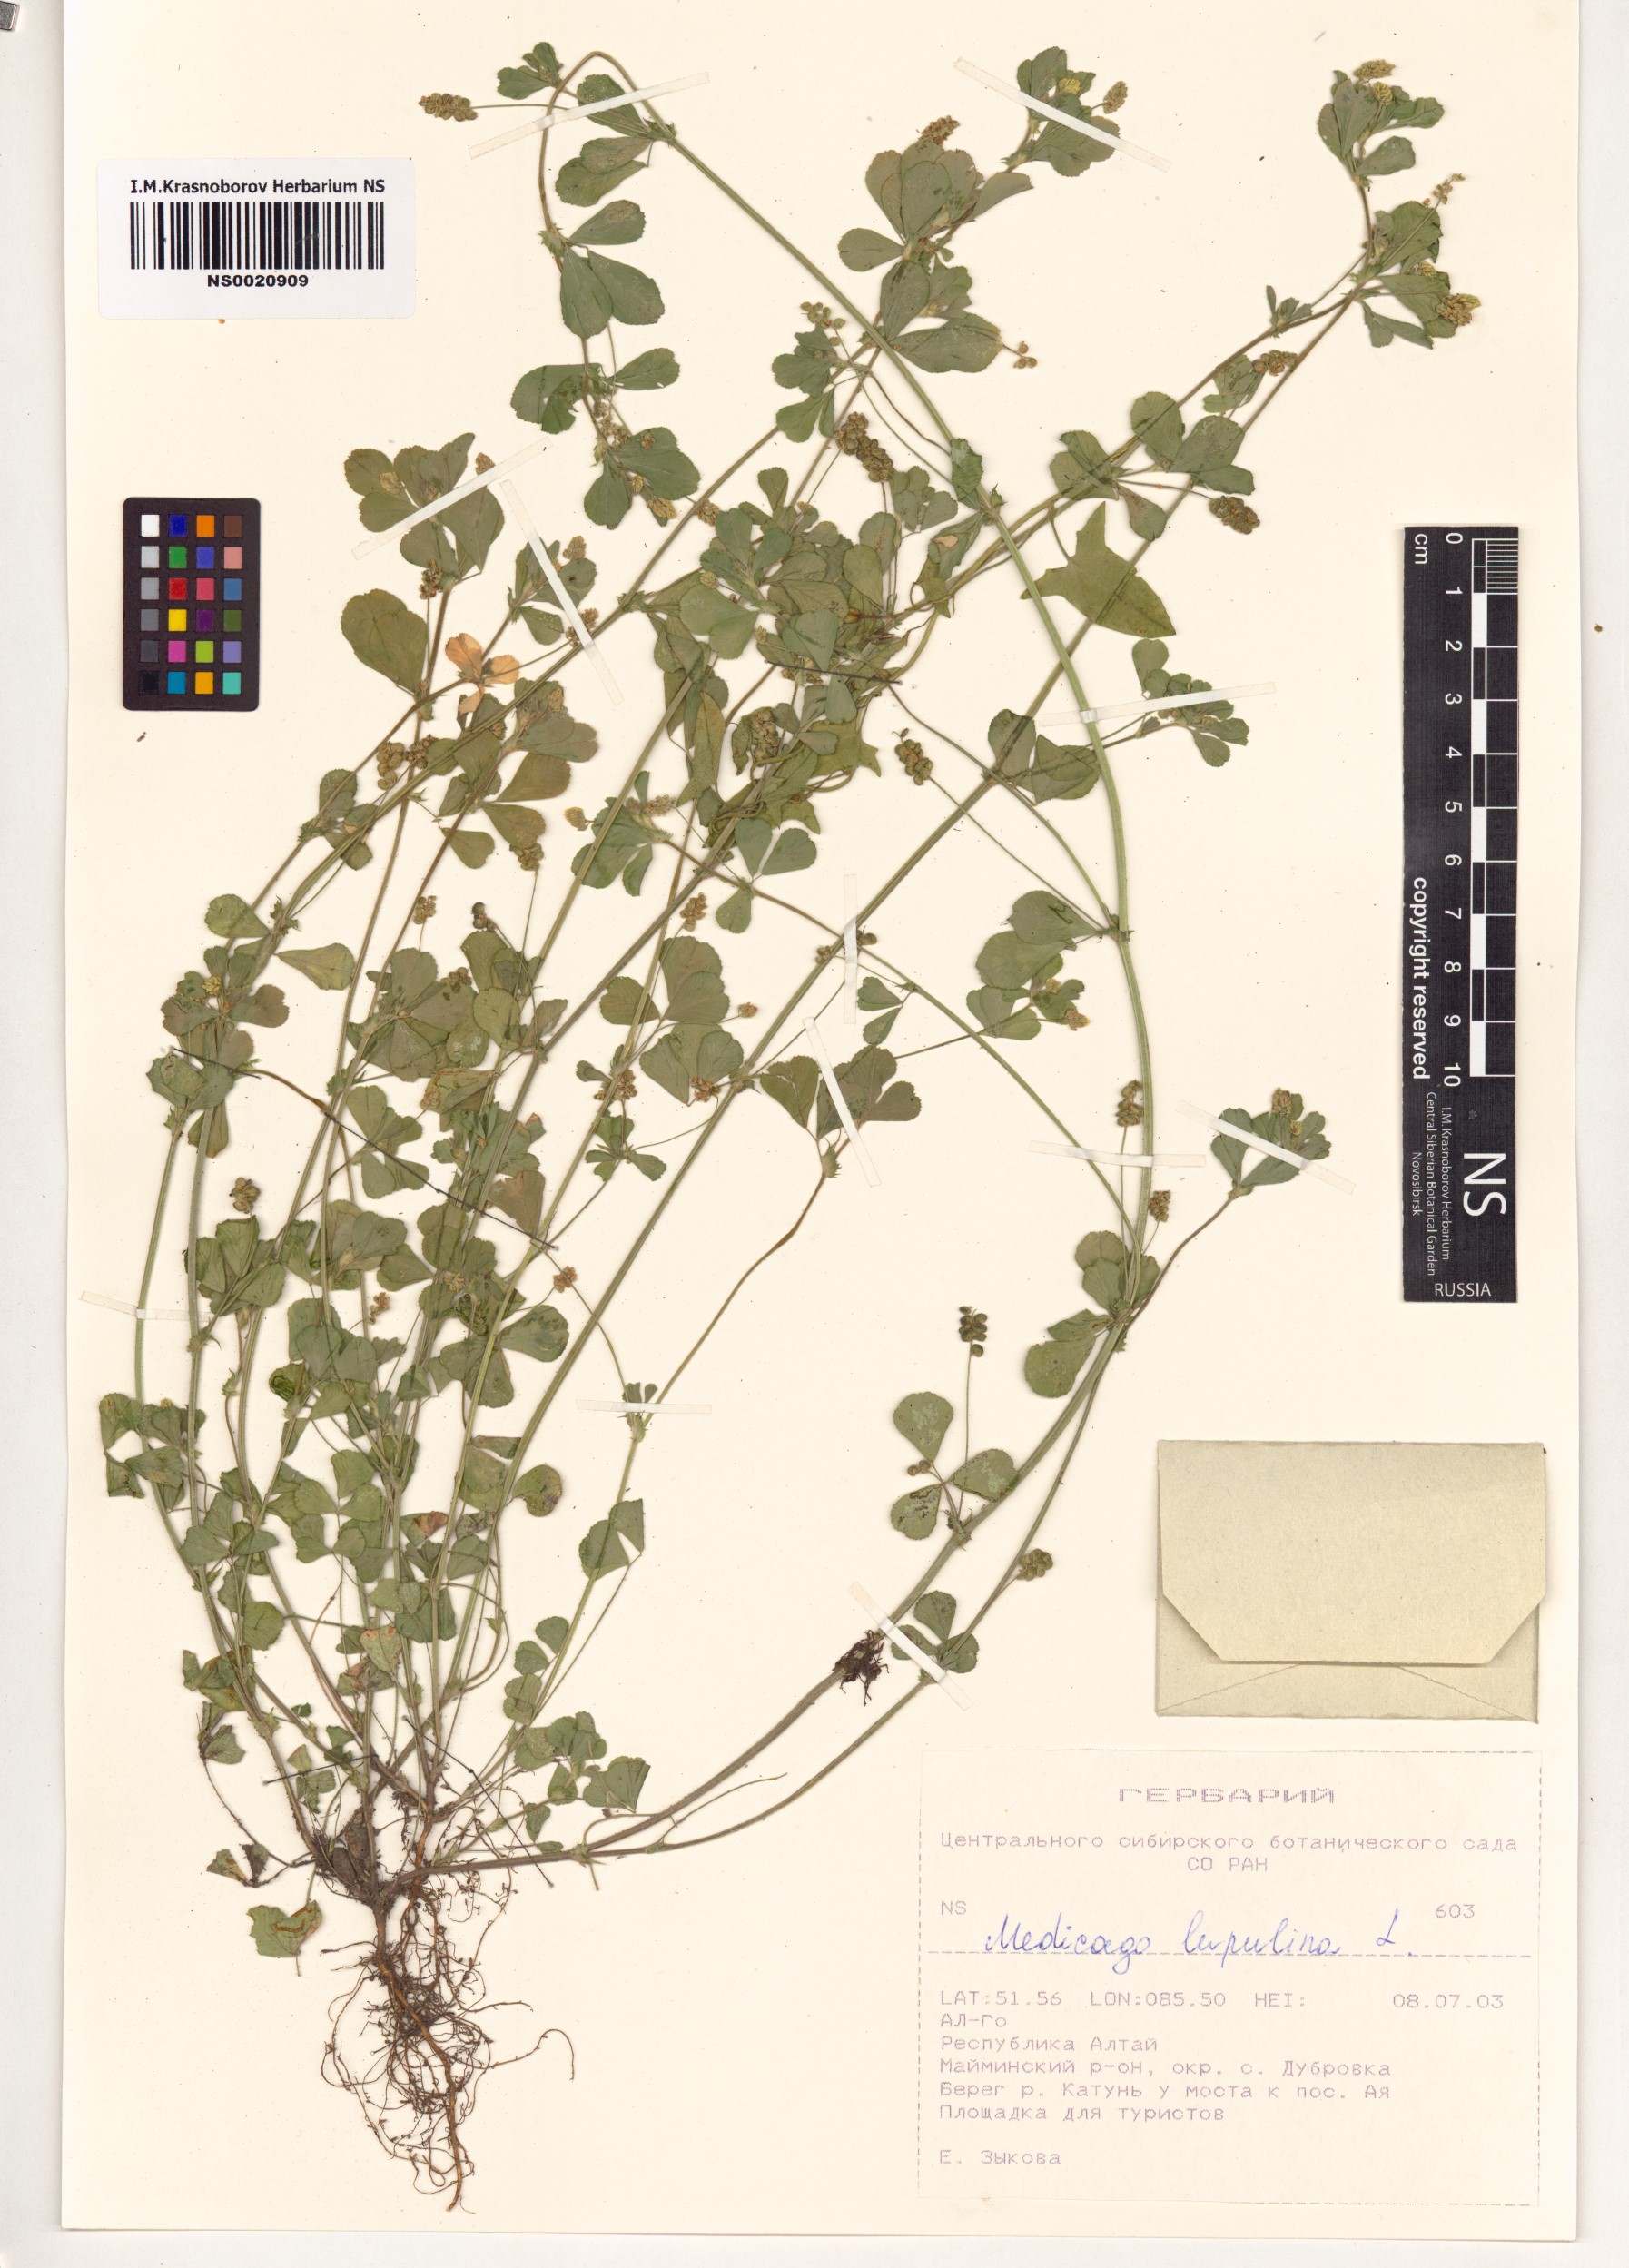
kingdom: Plantae
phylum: Tracheophyta
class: Magnoliopsida
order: Fabales
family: Fabaceae
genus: Medicago
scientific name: Medicago lupulina
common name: Black medick
